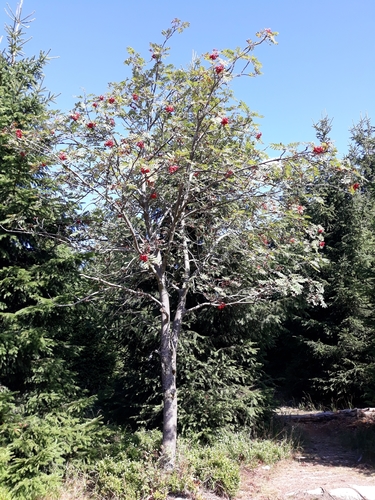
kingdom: Plantae
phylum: Tracheophyta
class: Magnoliopsida
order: Rosales
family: Rosaceae
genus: Sorbus
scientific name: Sorbus aucuparia
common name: Rowan
